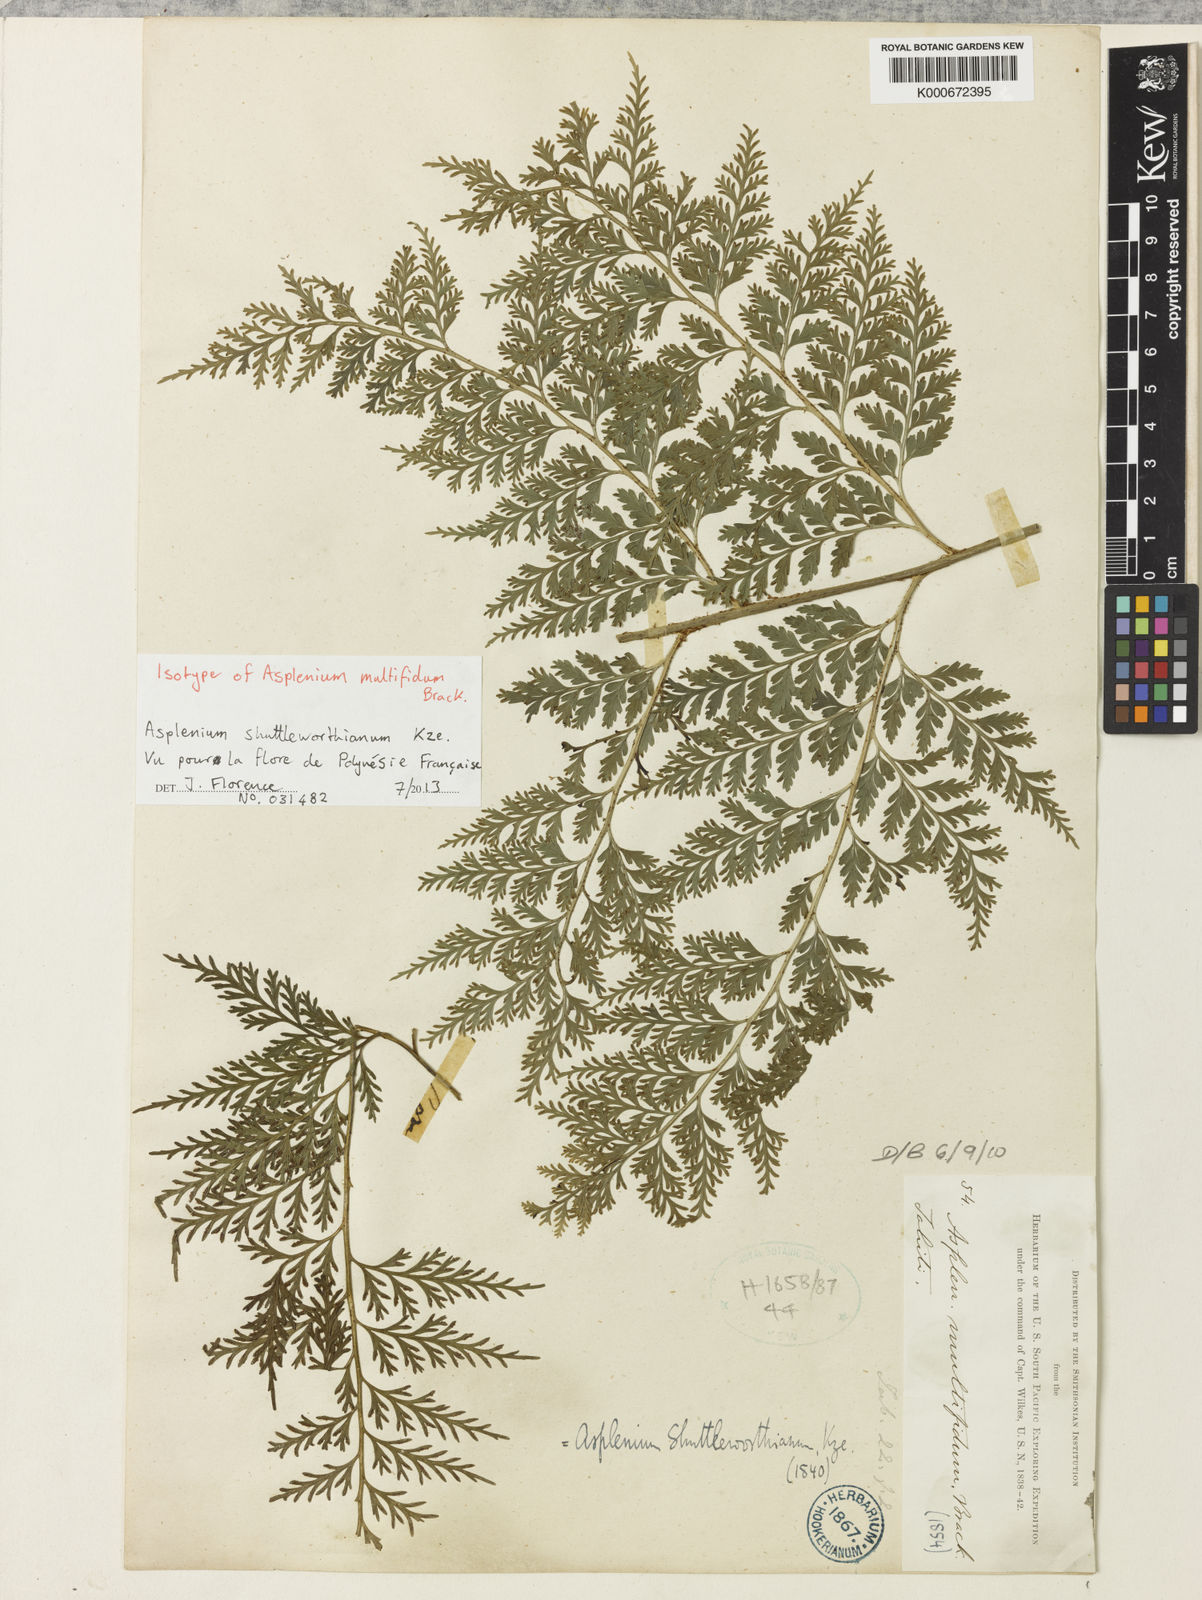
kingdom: Plantae
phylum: Tracheophyta
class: Polypodiopsida
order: Polypodiales
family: Aspleniaceae
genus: Asplenium
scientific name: Asplenium shuttleworthianum
